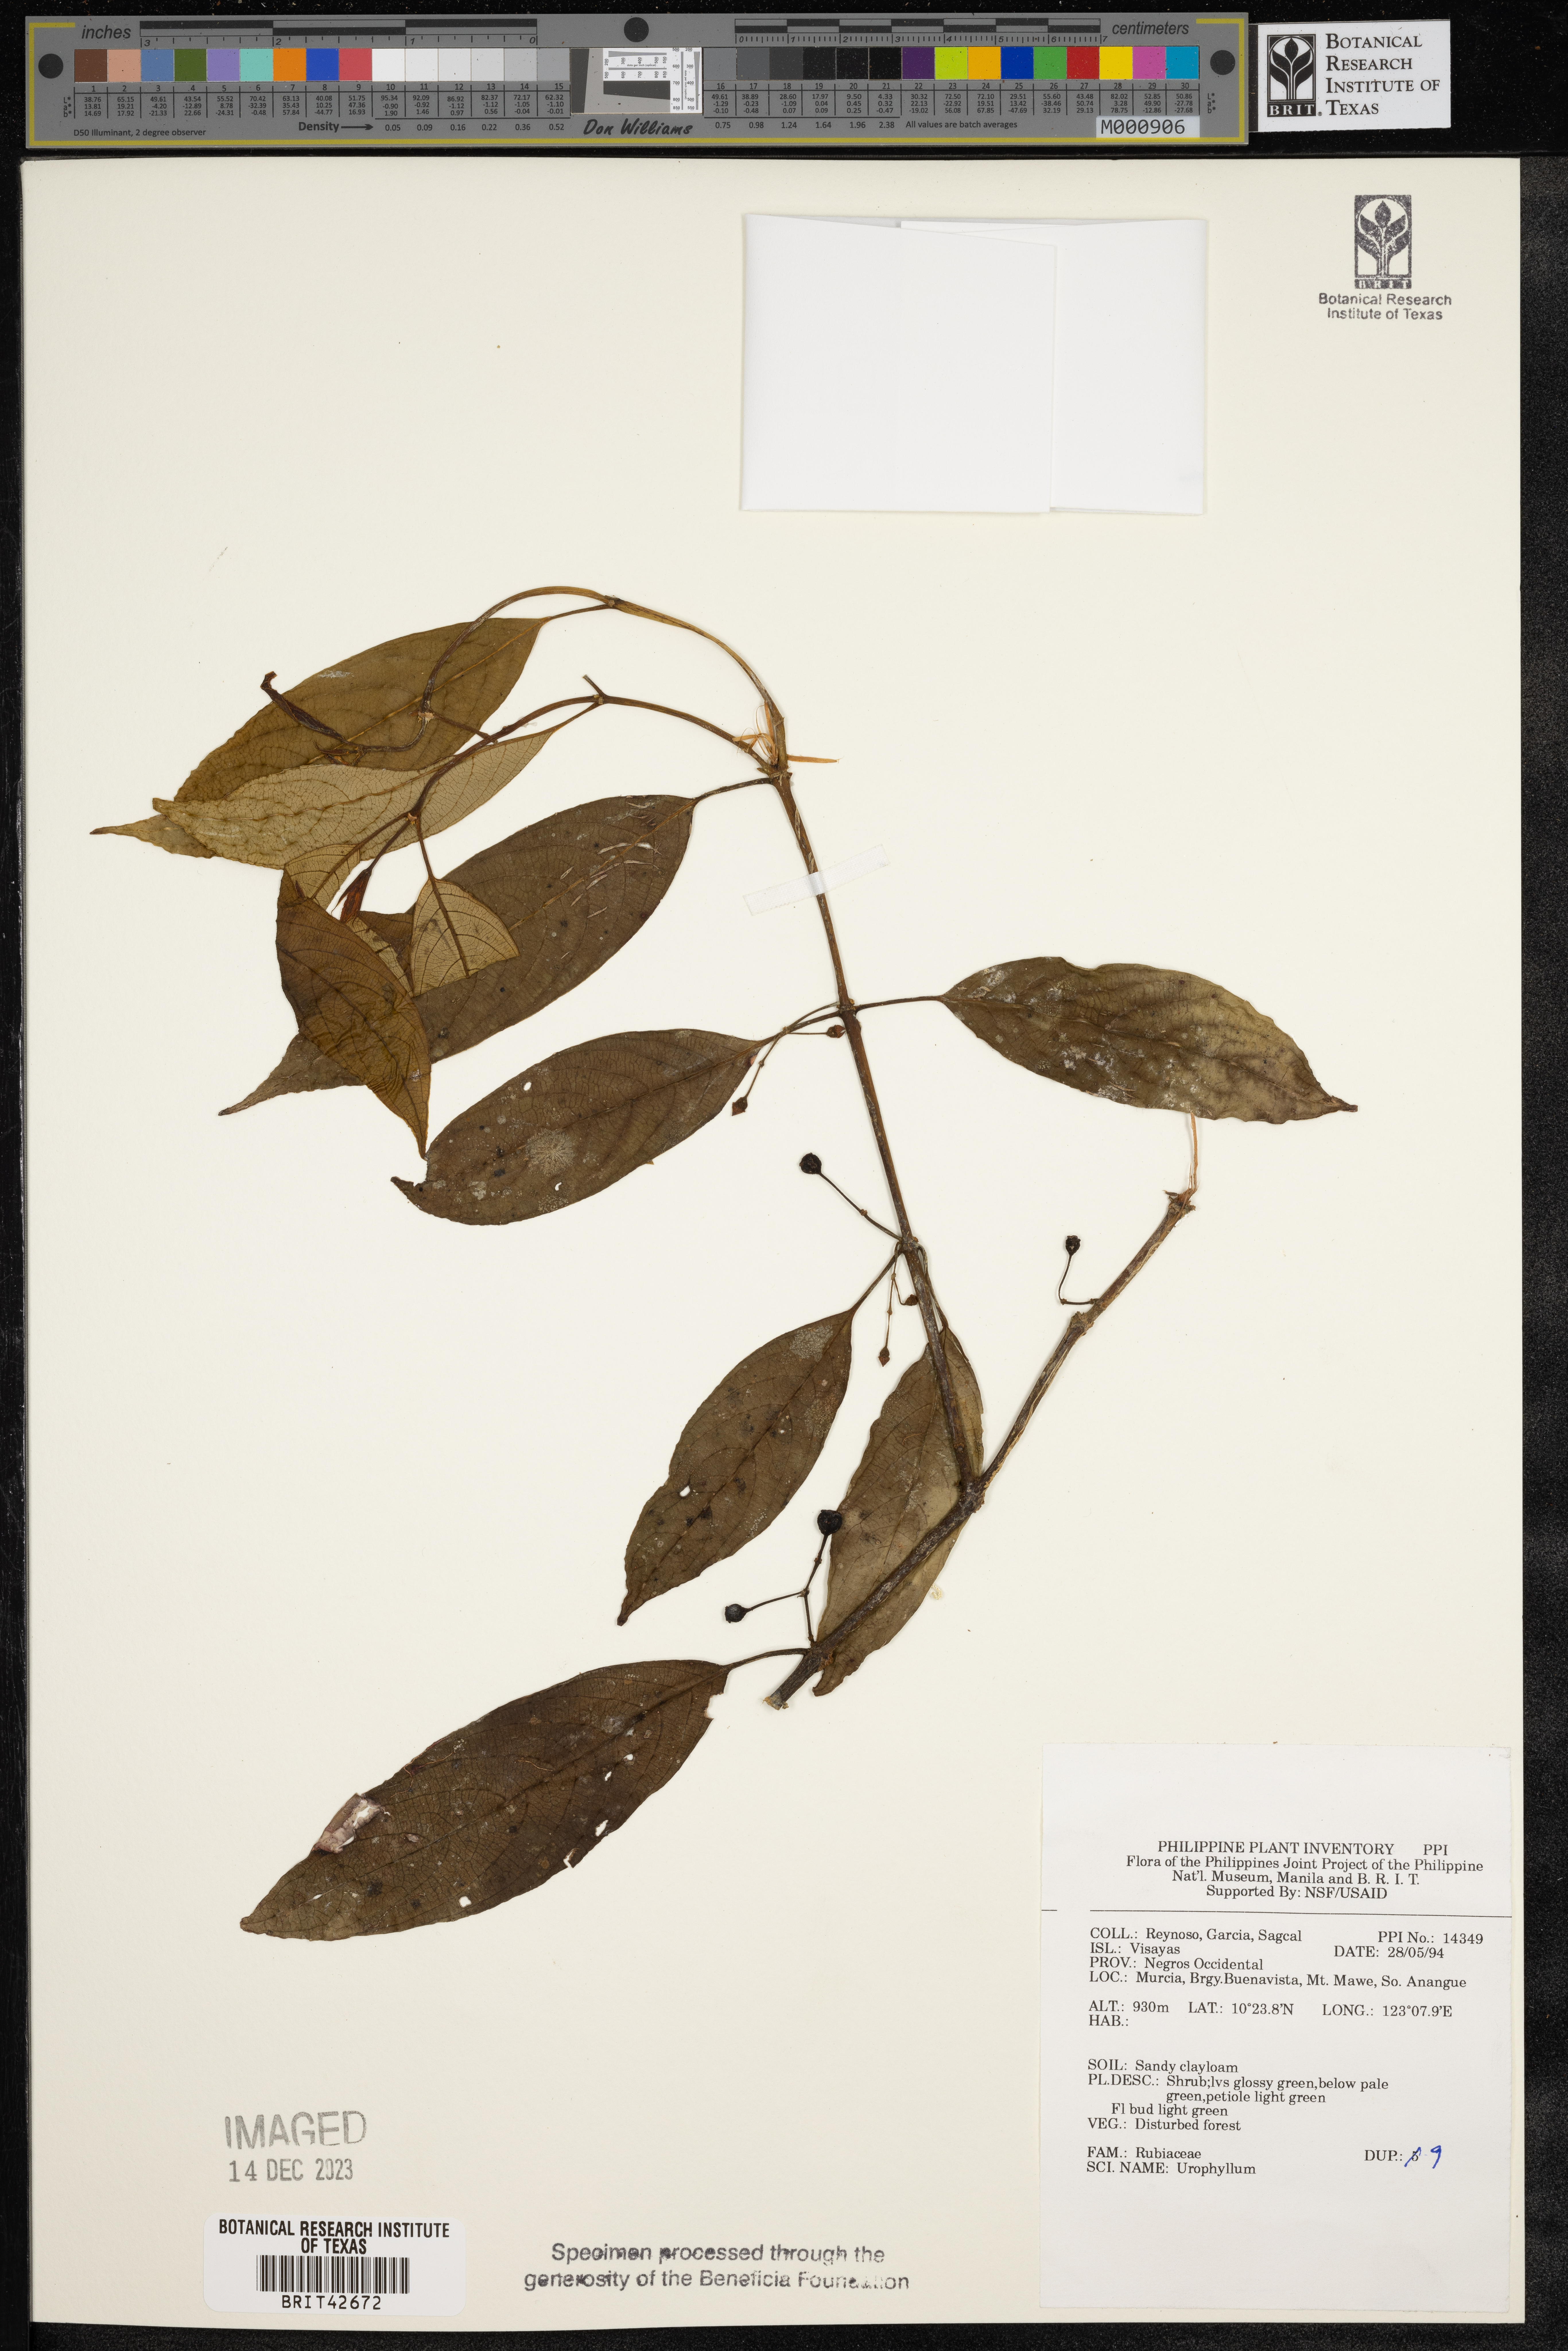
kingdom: Plantae
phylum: Tracheophyta
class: Magnoliopsida
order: Gentianales
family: Rubiaceae
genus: Urophyllum
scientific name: Urophyllum
